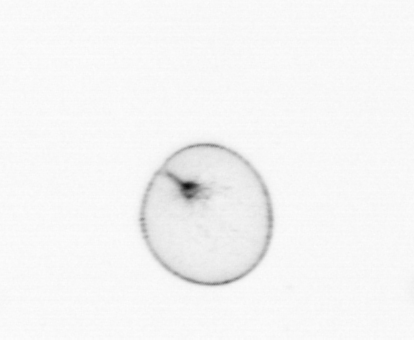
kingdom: Chromista
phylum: Myzozoa
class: Dinophyceae
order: Noctilucales
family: Noctilucaceae
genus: Noctiluca
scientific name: Noctiluca scintillans
